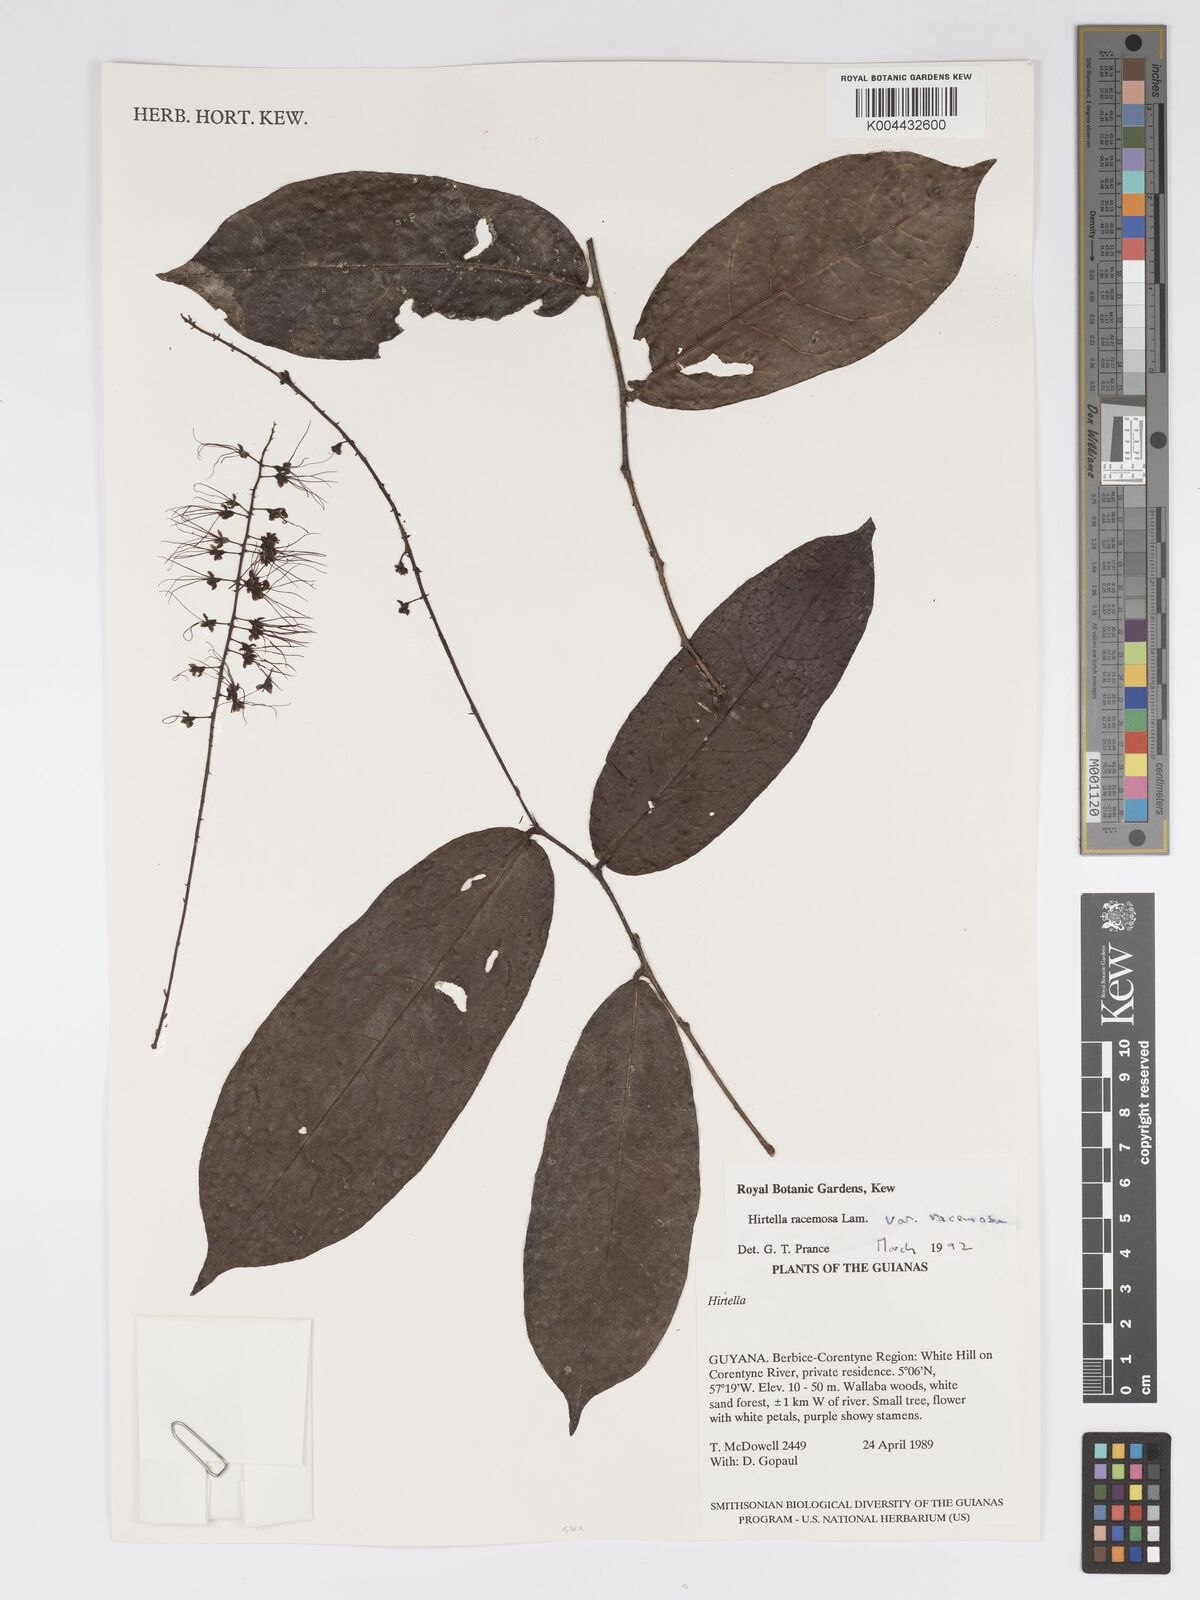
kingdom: Plantae
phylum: Tracheophyta
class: Magnoliopsida
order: Malpighiales
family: Chrysobalanaceae
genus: Hirtella
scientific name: Hirtella racemosa
